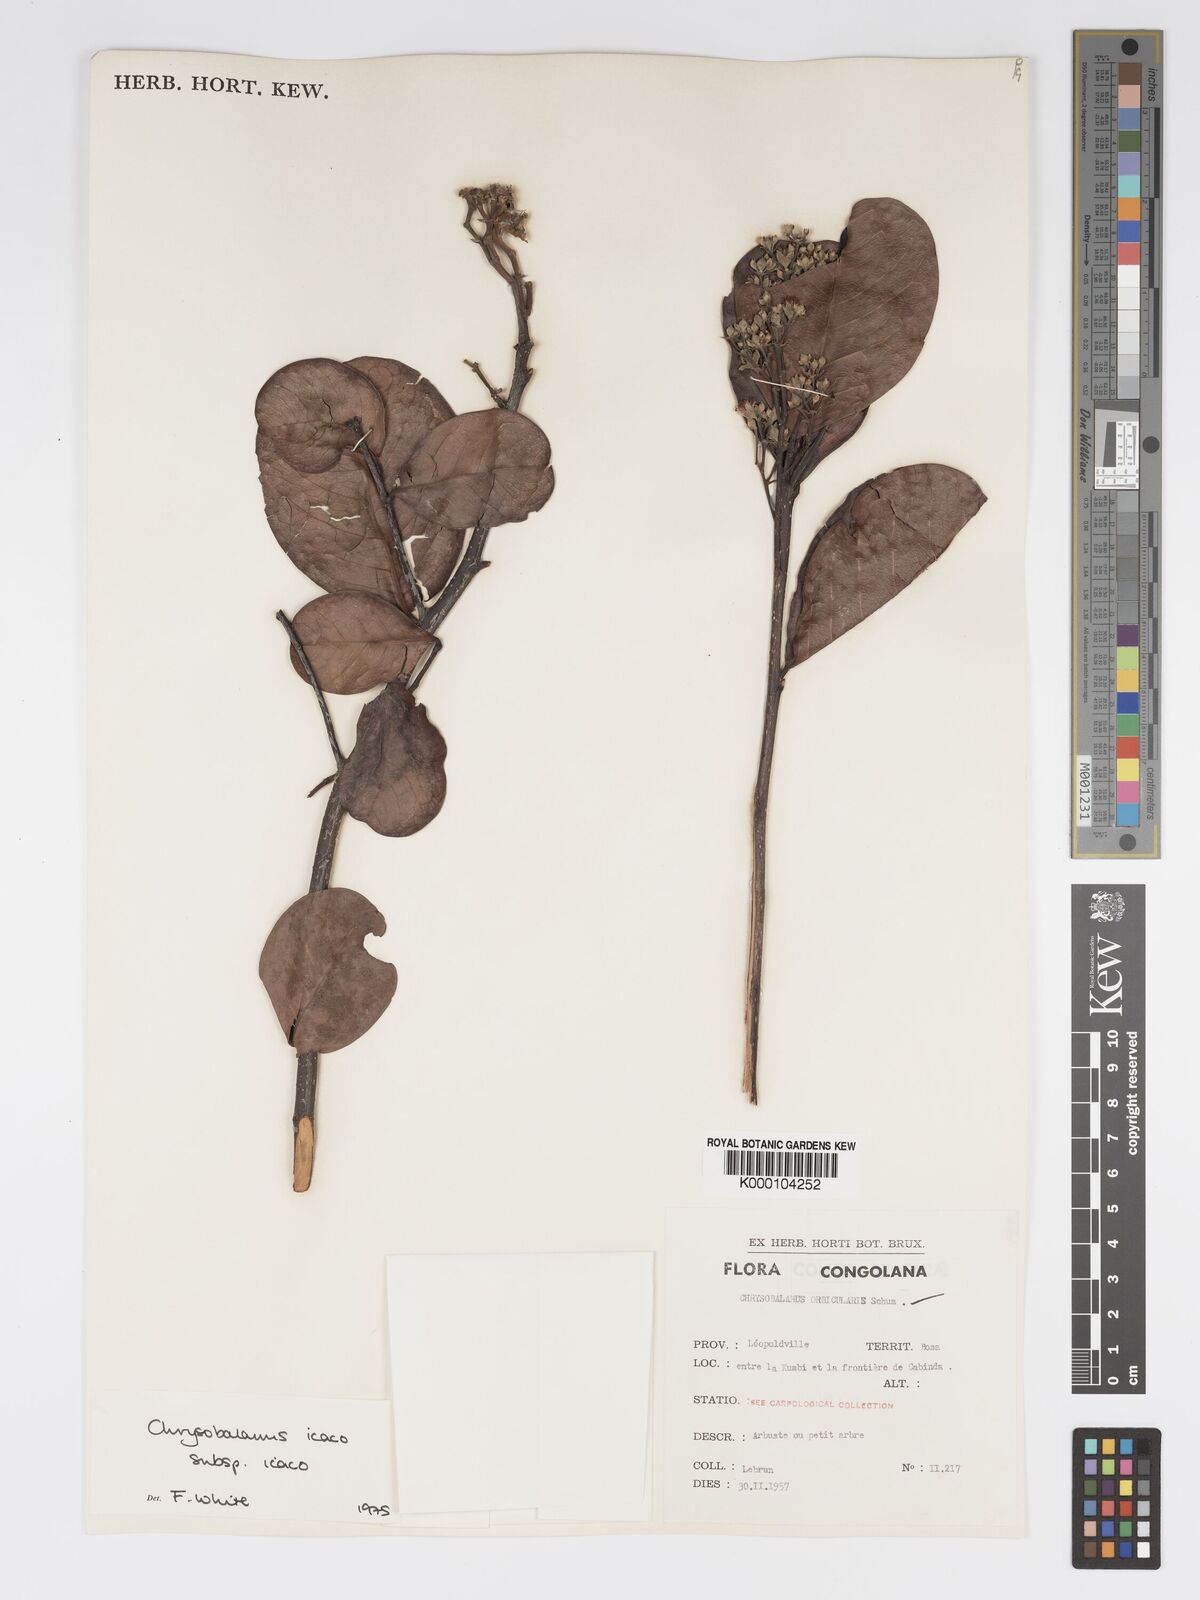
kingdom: Plantae
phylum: Tracheophyta
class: Magnoliopsida
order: Malpighiales
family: Chrysobalanaceae
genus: Chrysobalanus
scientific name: Chrysobalanus icaco
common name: Coco plum
